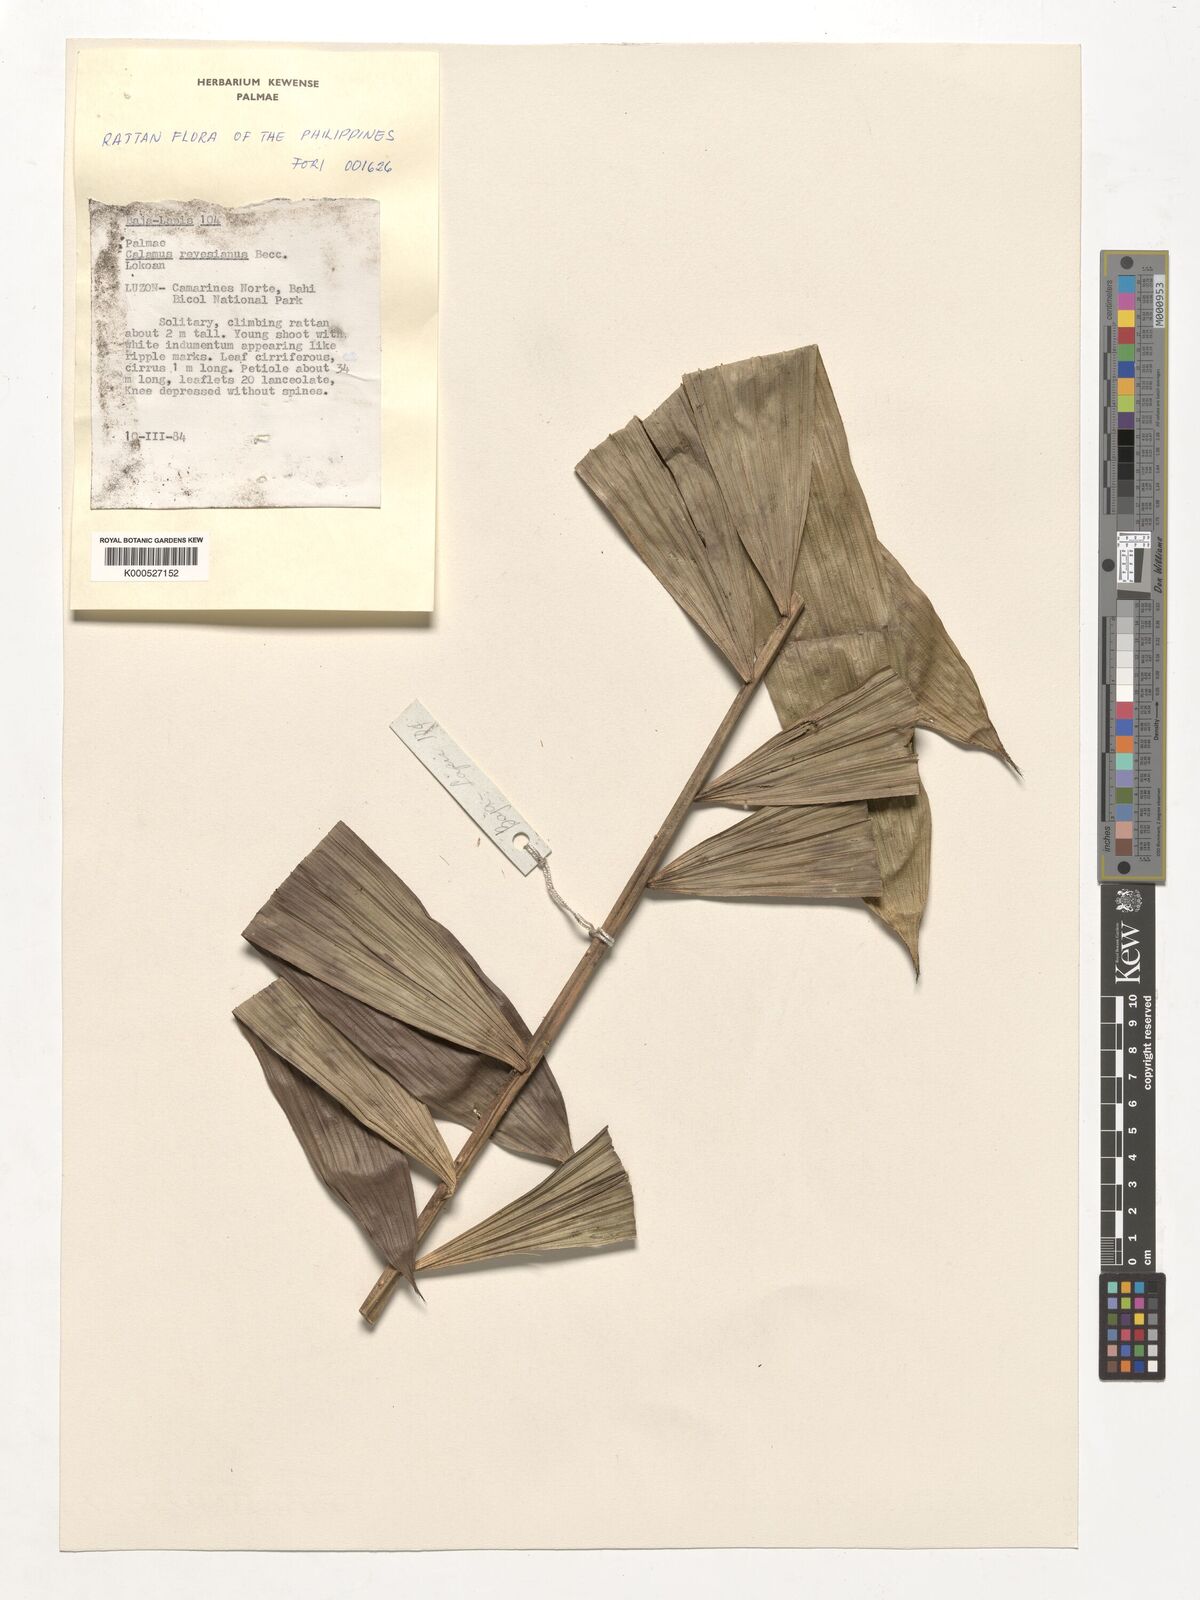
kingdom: Plantae
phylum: Tracheophyta
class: Liliopsida
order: Arecales
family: Arecaceae
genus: Calamus
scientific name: Calamus moseleyanus
